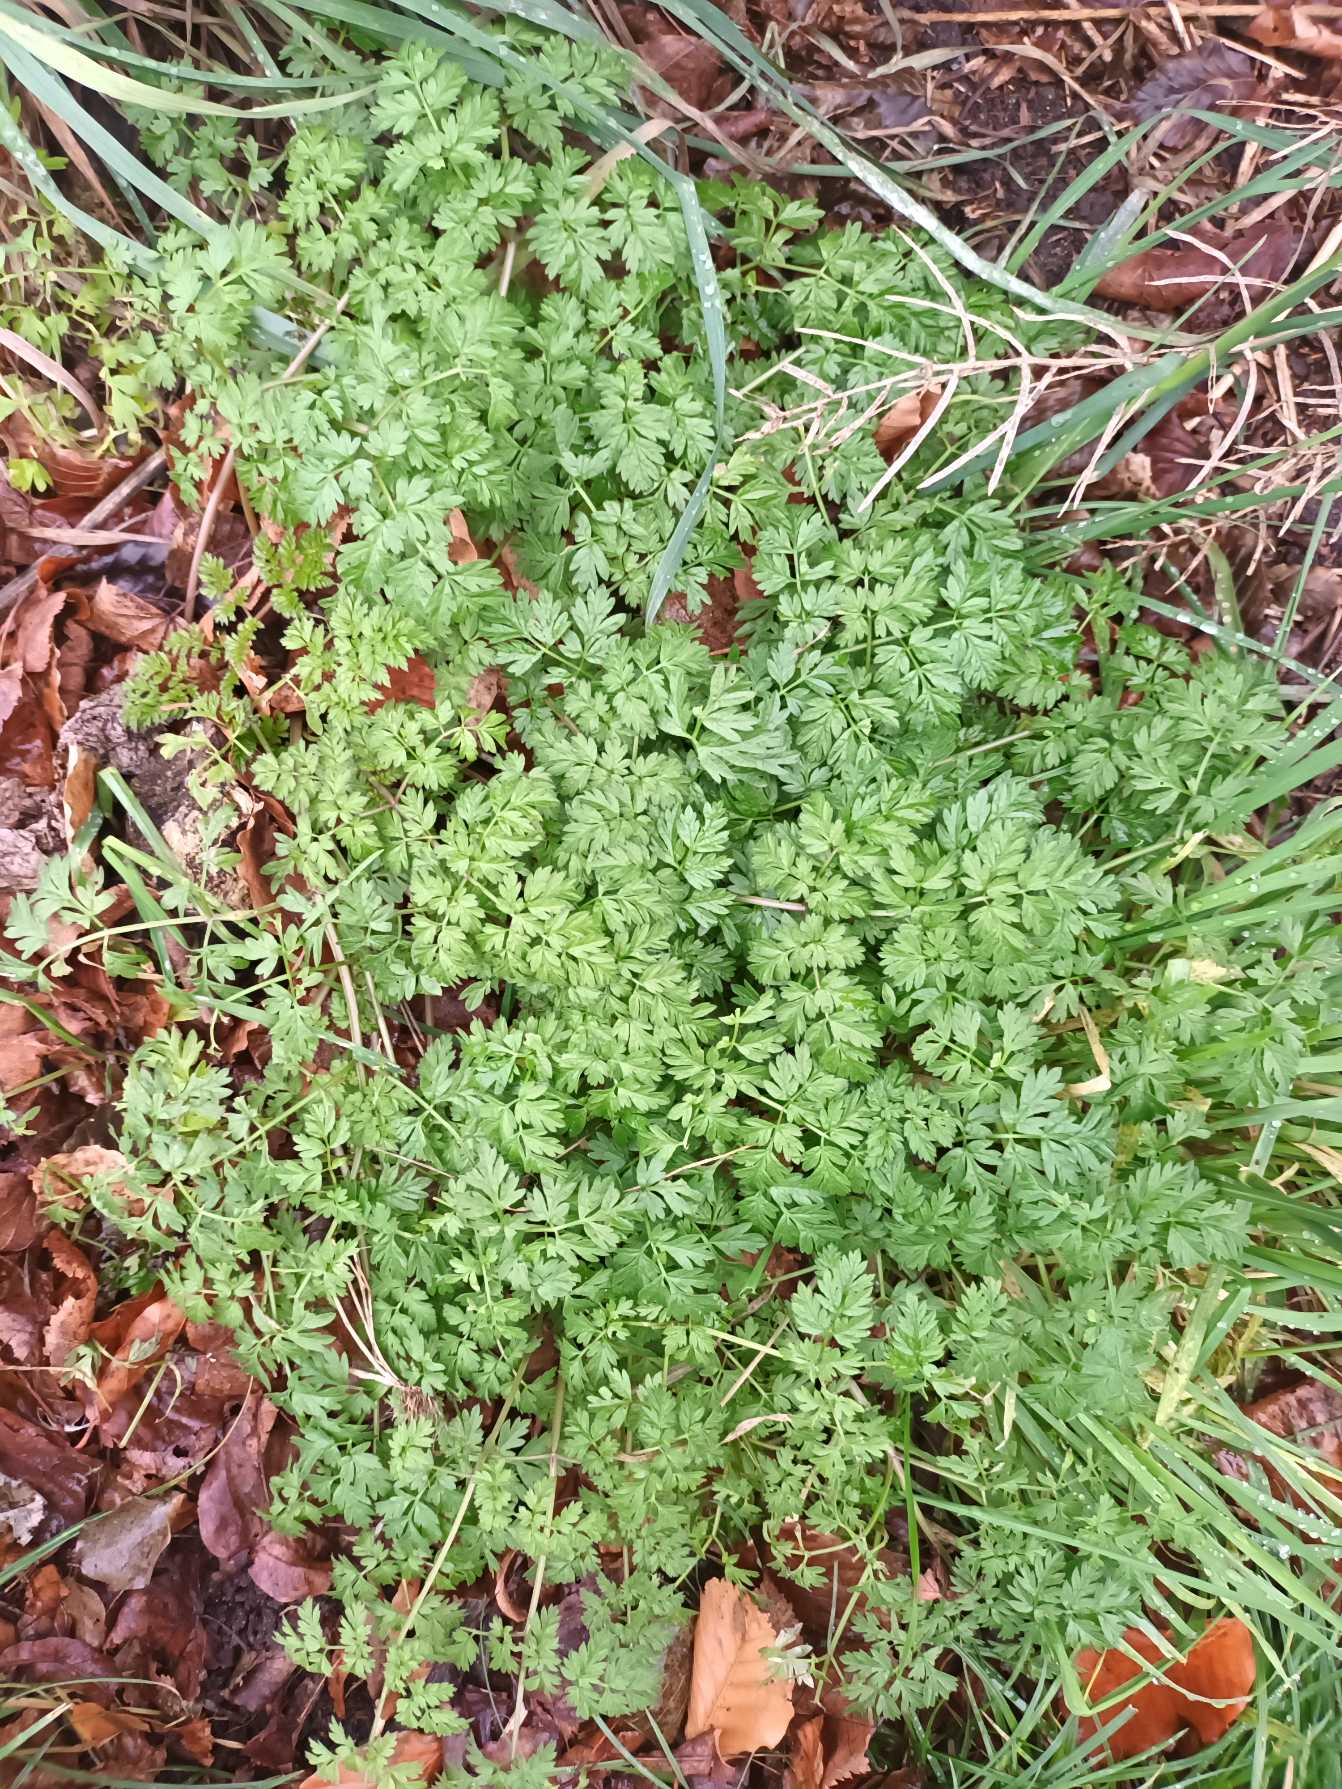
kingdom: Plantae
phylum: Tracheophyta
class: Magnoliopsida
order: Apiales
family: Apiaceae
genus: Anthriscus
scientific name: Anthriscus sylvestris
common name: Vild kørvel
